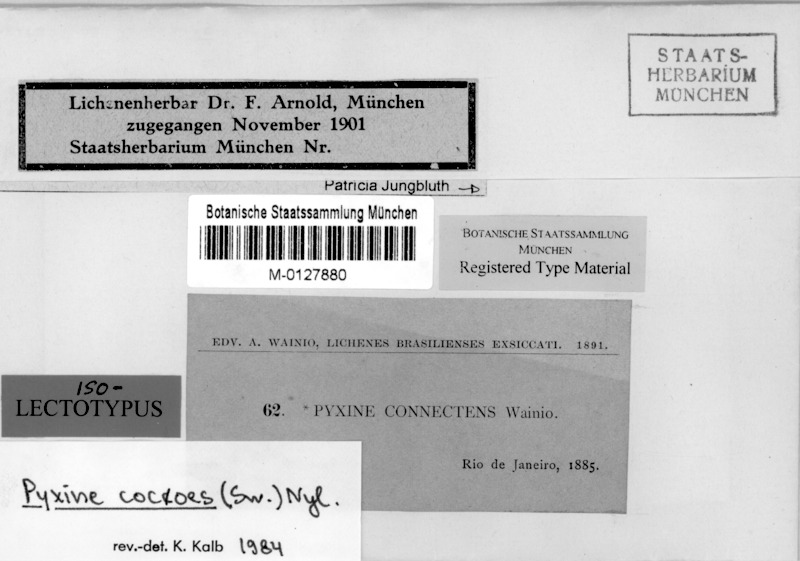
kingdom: Fungi
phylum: Ascomycota
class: Lecanoromycetes
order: Caliciales
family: Caliciaceae
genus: Pyxine
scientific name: Pyxine cocoes
